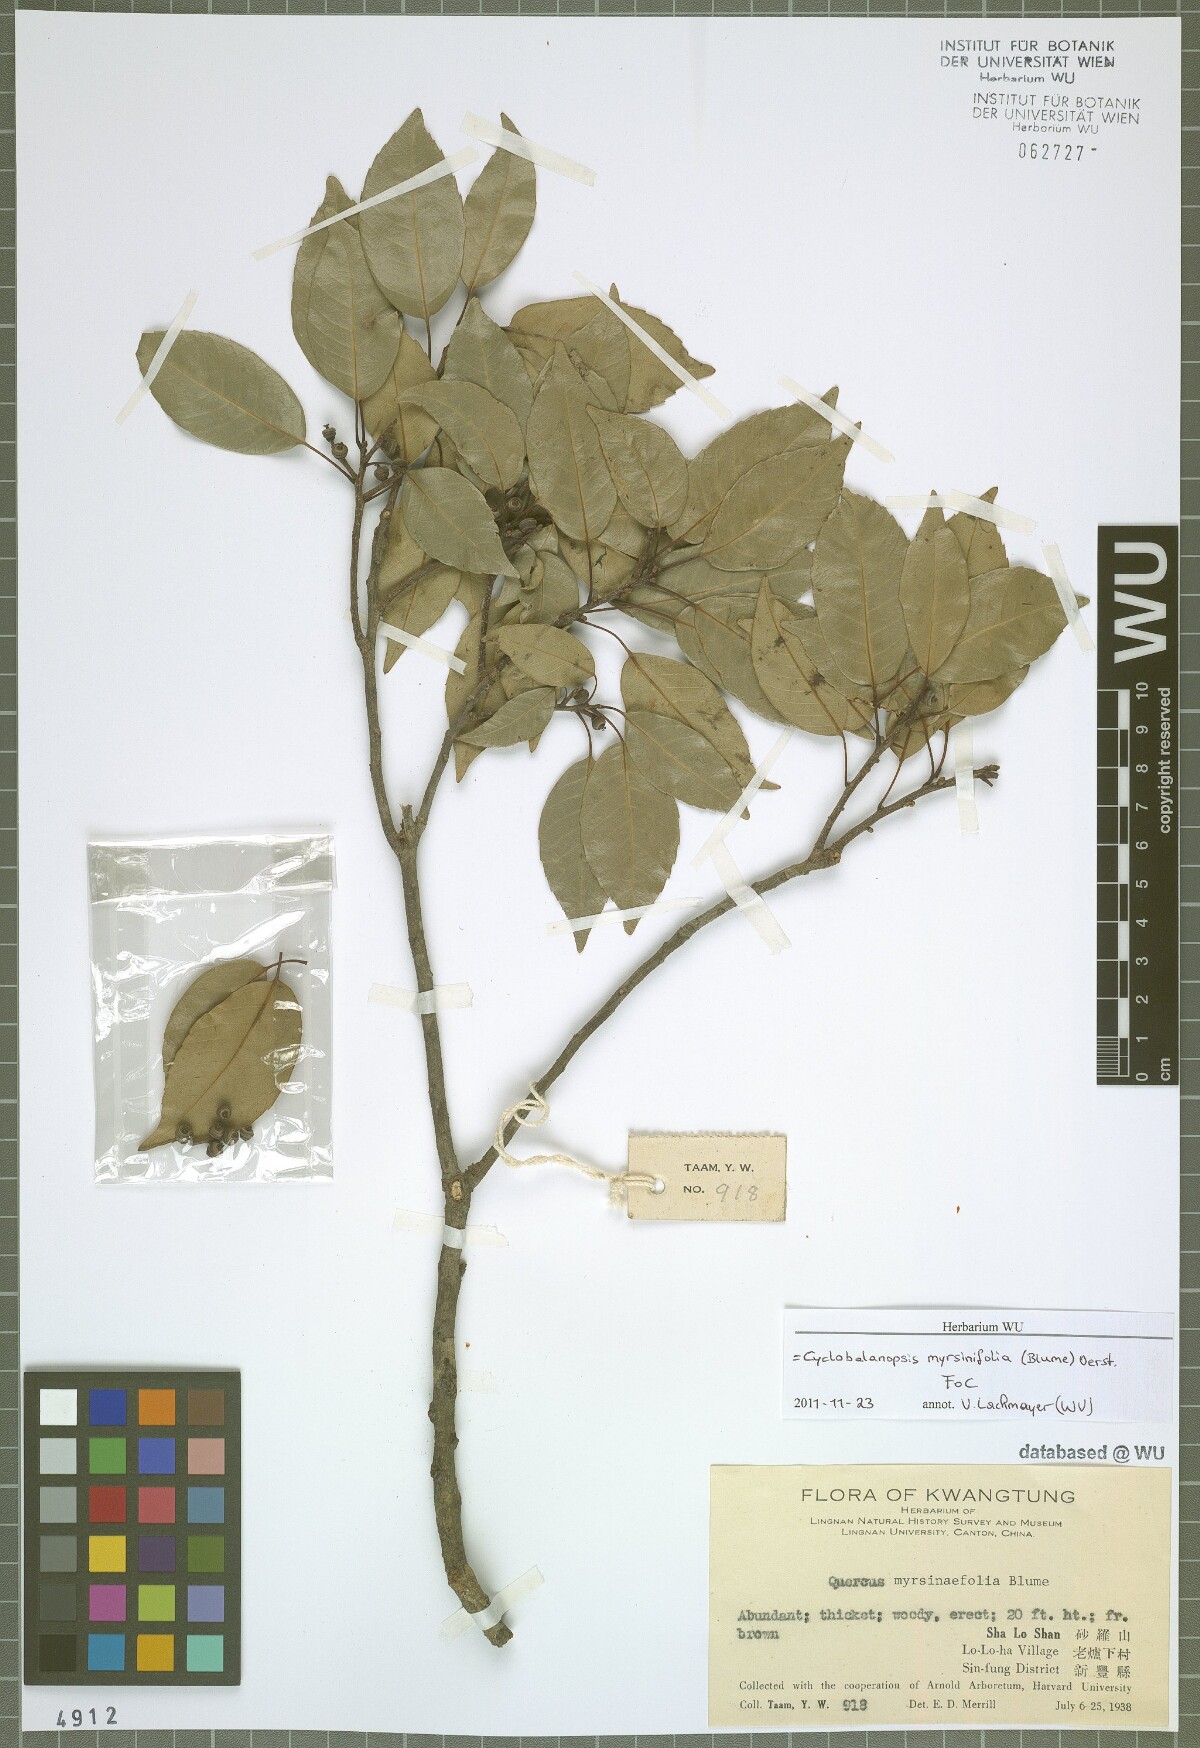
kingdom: Plantae
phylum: Tracheophyta
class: Magnoliopsida
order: Fagales
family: Fagaceae
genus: Quercus
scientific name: Quercus myrsinifolia
